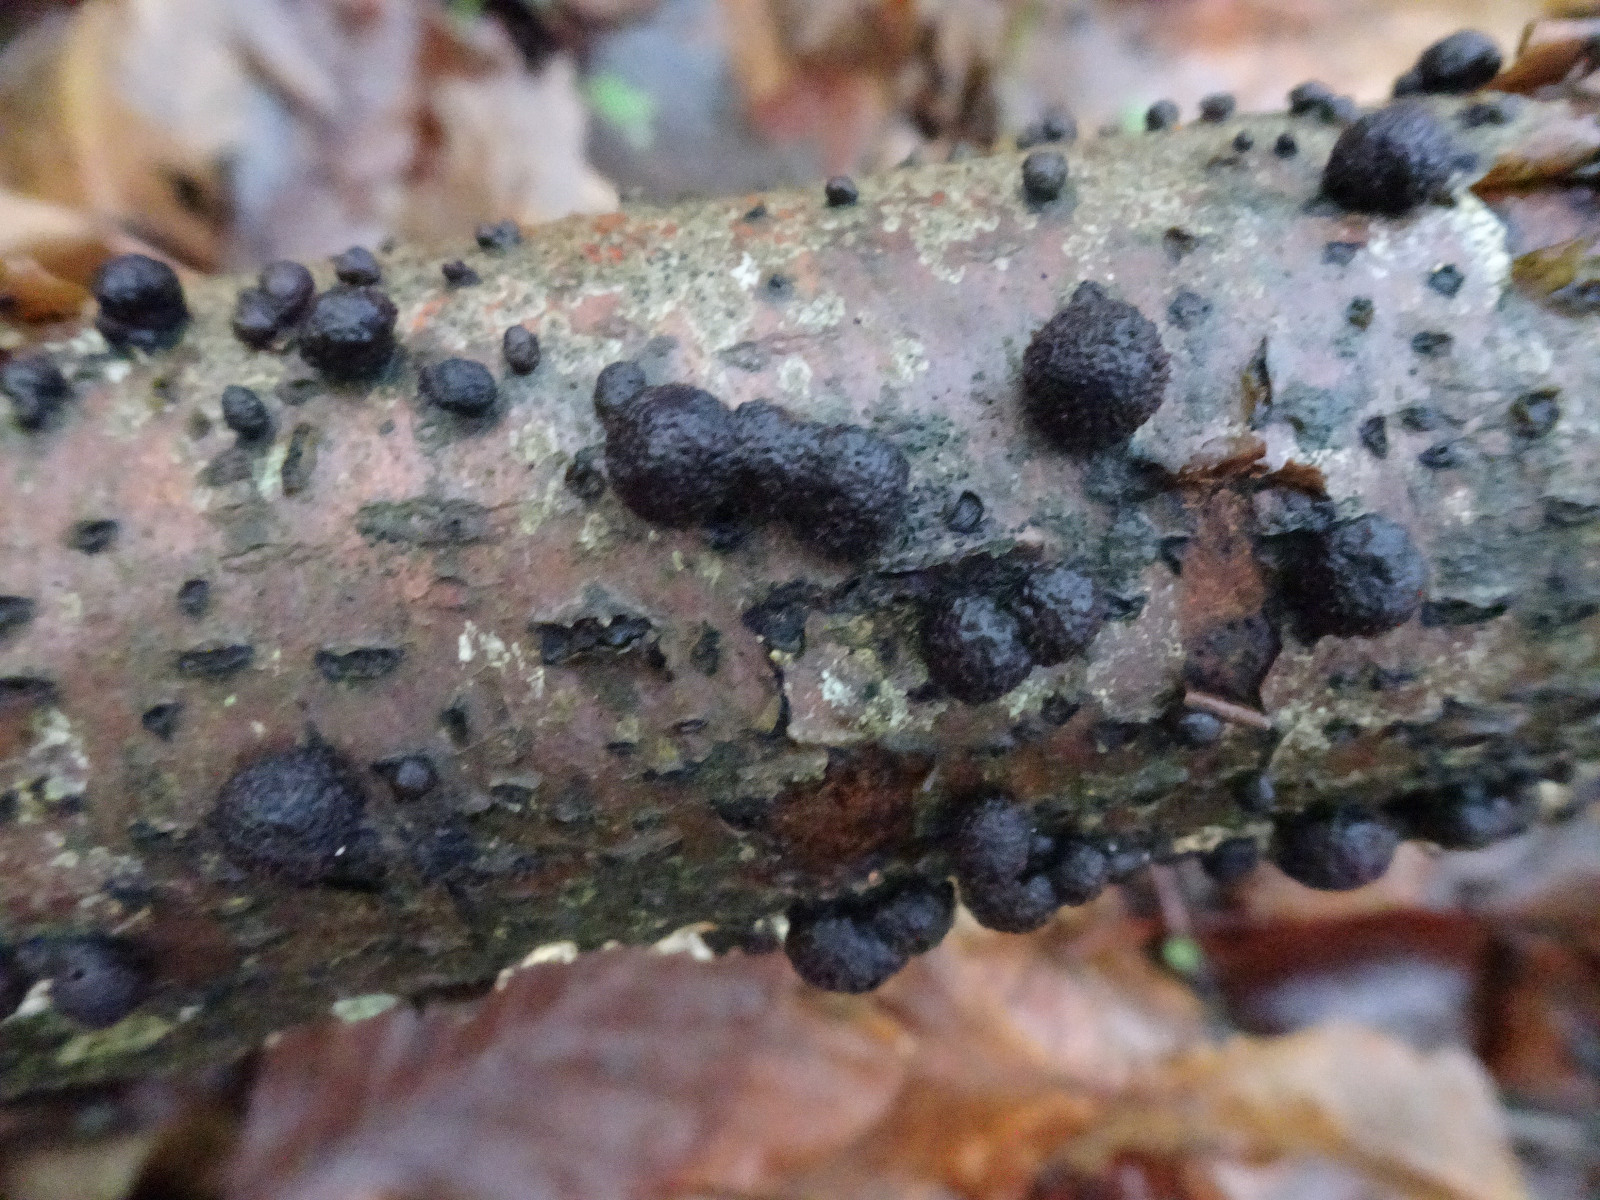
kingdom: Fungi
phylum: Ascomycota
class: Sordariomycetes
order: Xylariales
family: Hypoxylaceae
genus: Hypoxylon
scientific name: Hypoxylon fragiforme
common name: kuljordbær
